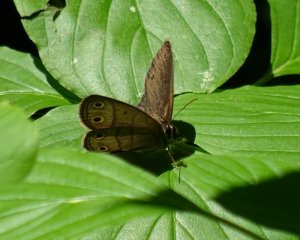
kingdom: Animalia
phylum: Arthropoda
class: Insecta
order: Lepidoptera
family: Nymphalidae
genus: Euptychia
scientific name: Euptychia cymela
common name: Little Wood Satyr
